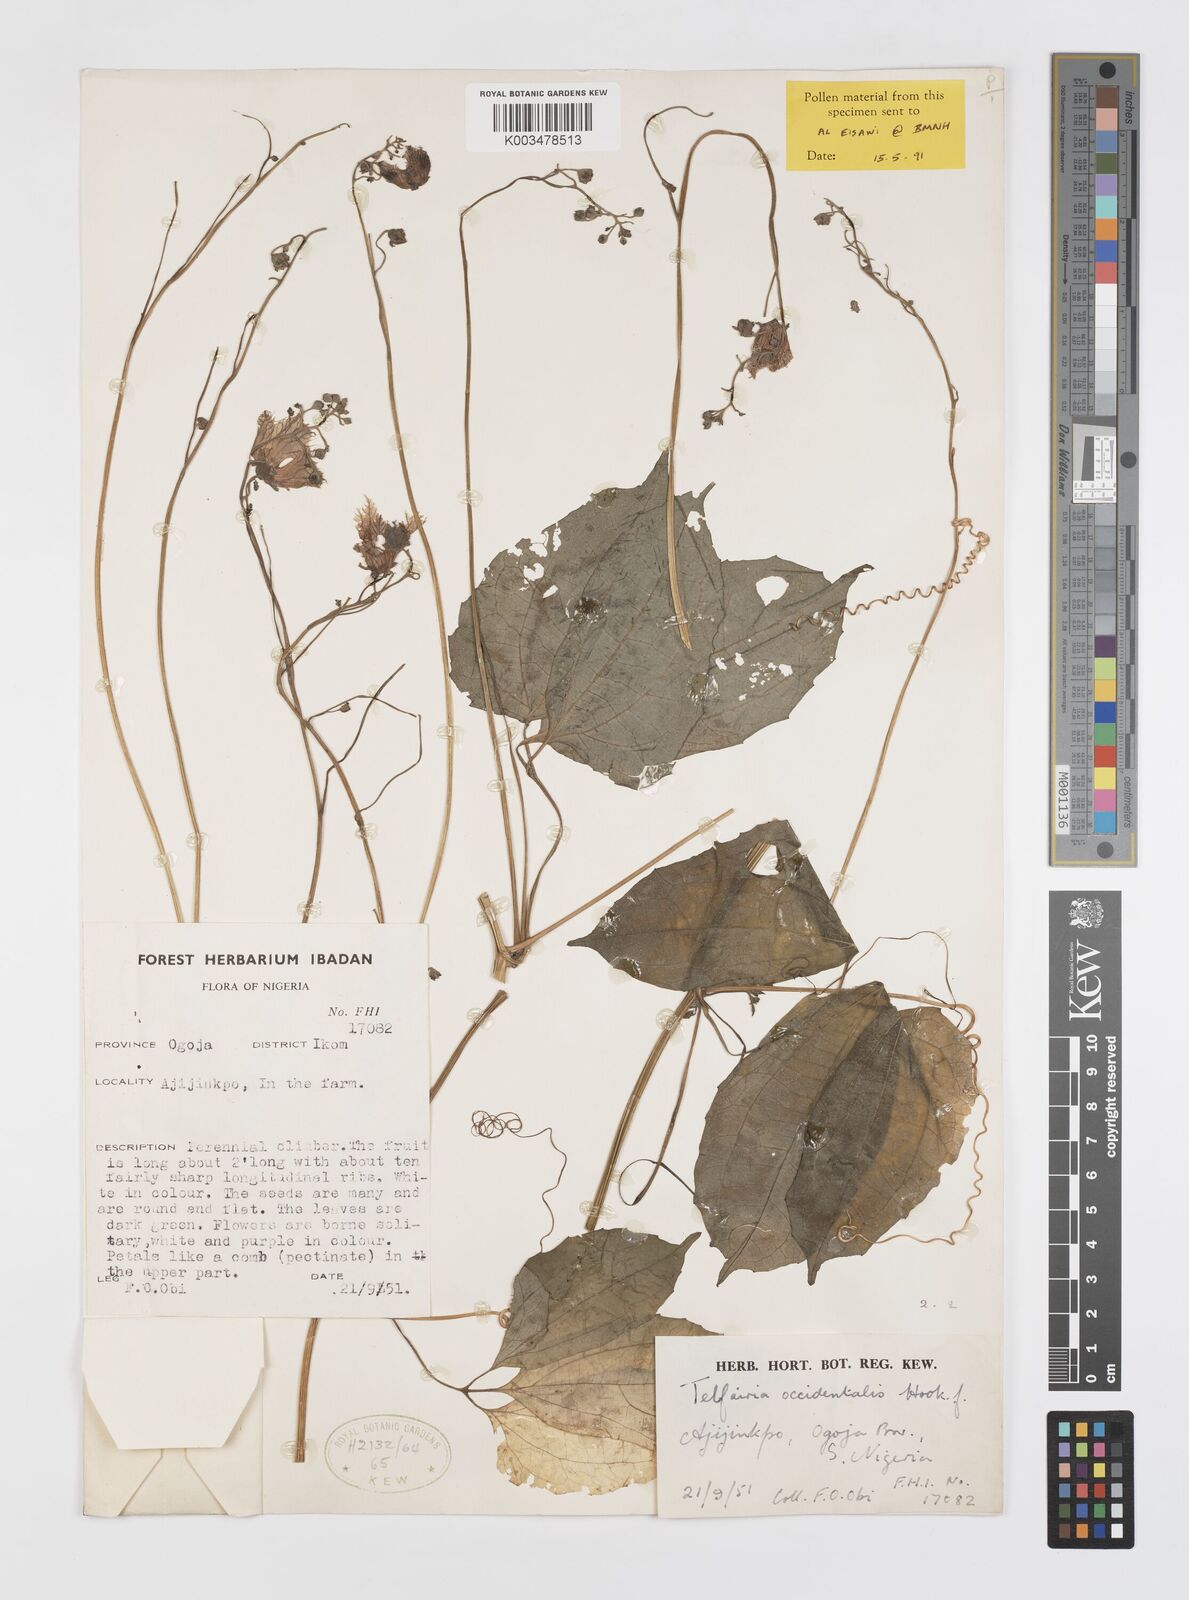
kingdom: Plantae
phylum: Tracheophyta
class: Magnoliopsida
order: Cucurbitales
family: Cucurbitaceae
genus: Telfairia
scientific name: Telfairia occidentalis
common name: Oysternut
